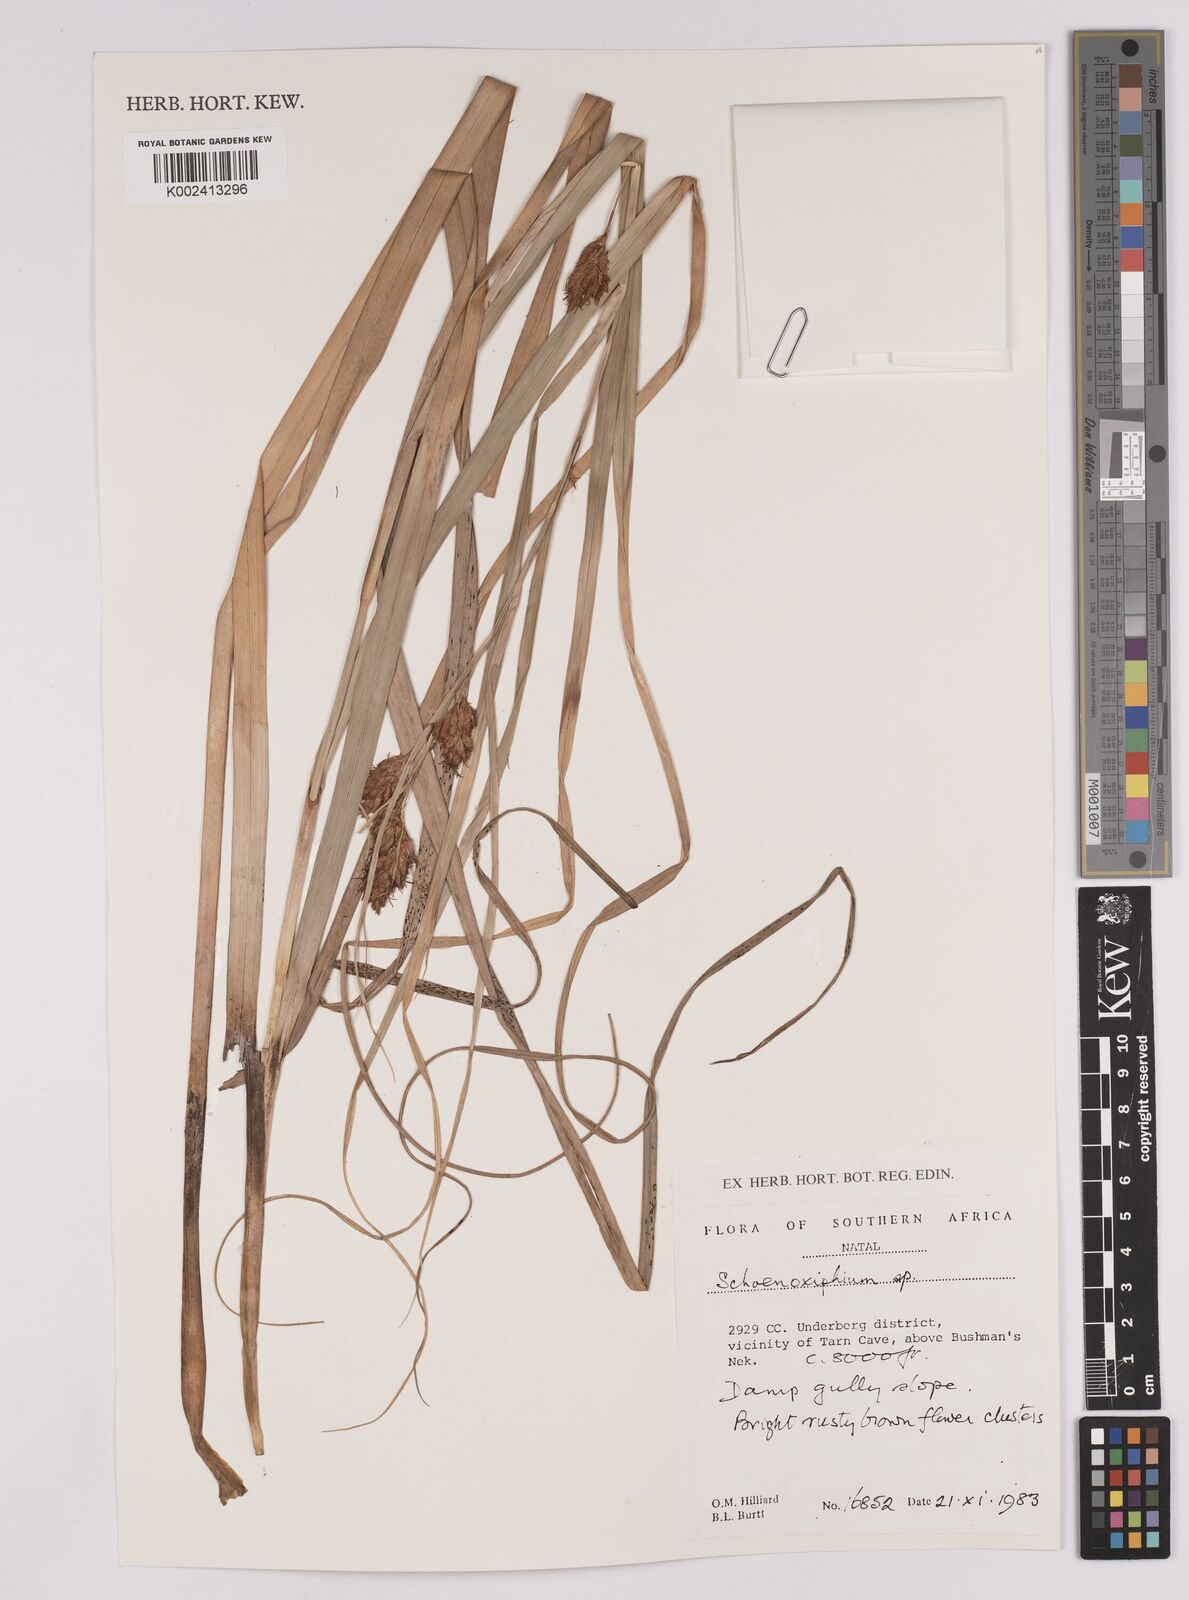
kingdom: Plantae
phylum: Tracheophyta
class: Liliopsida
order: Poales
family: Cyperaceae
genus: Carex
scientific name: Carex
